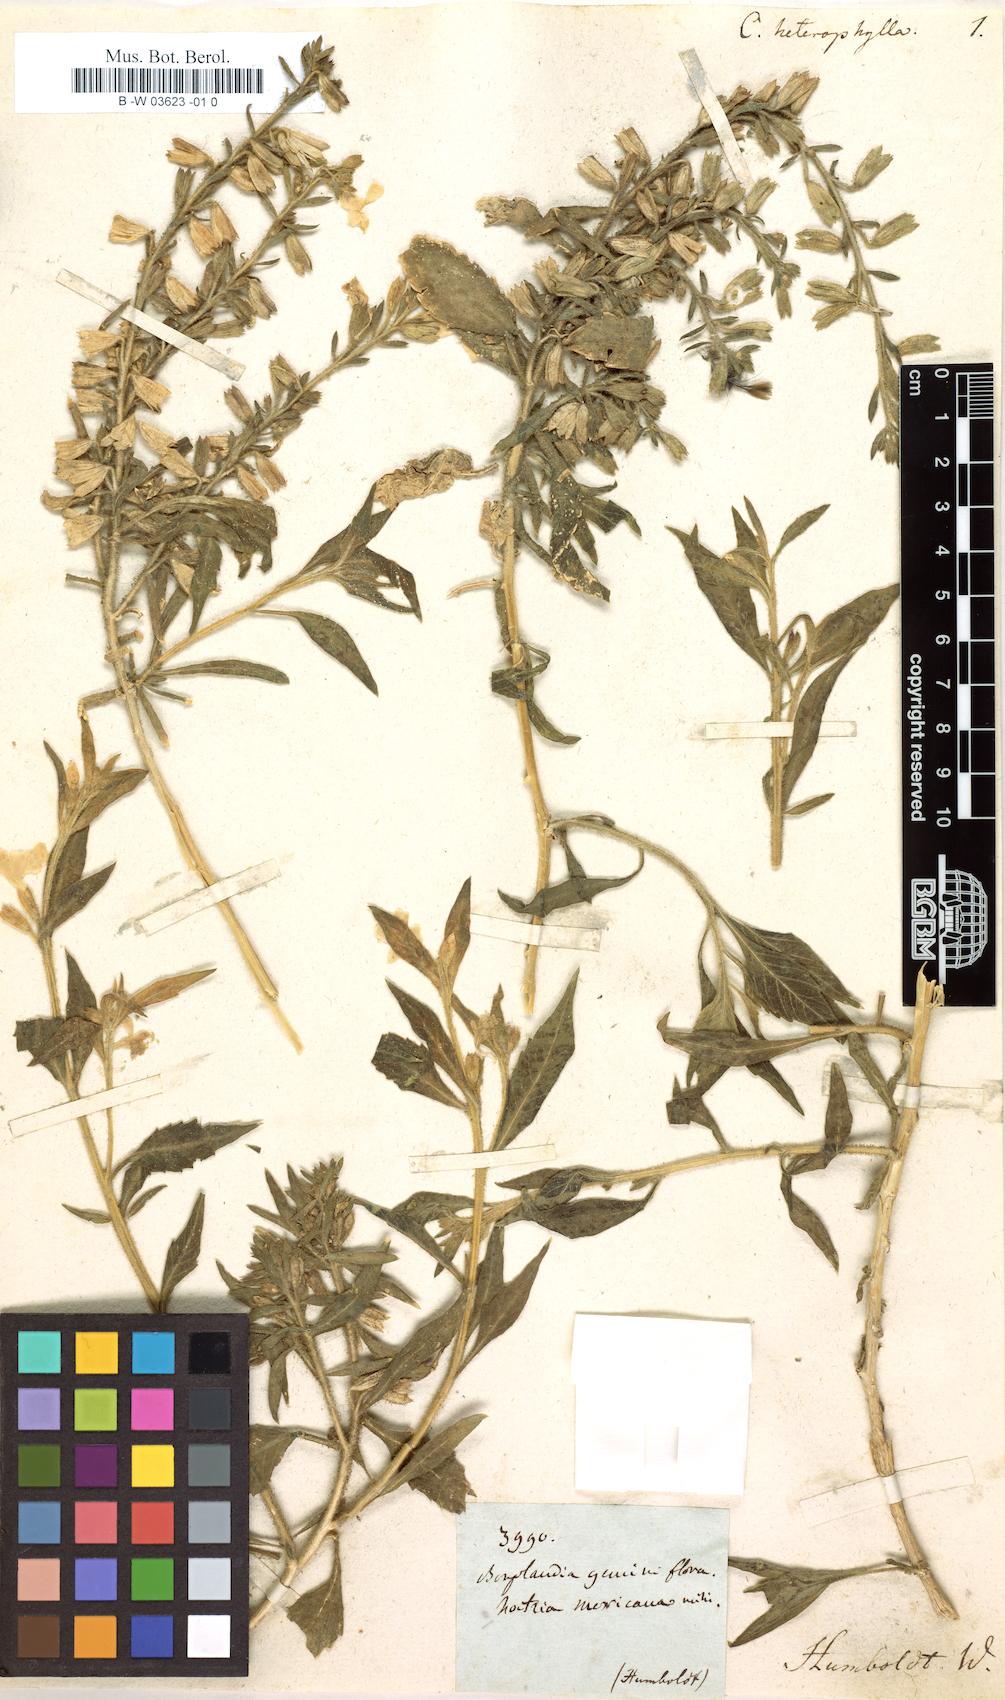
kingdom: Plantae
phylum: Tracheophyta
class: Magnoliopsida
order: Ericales
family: Polemoniaceae
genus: Bonplandia
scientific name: Bonplandia geminiflora
